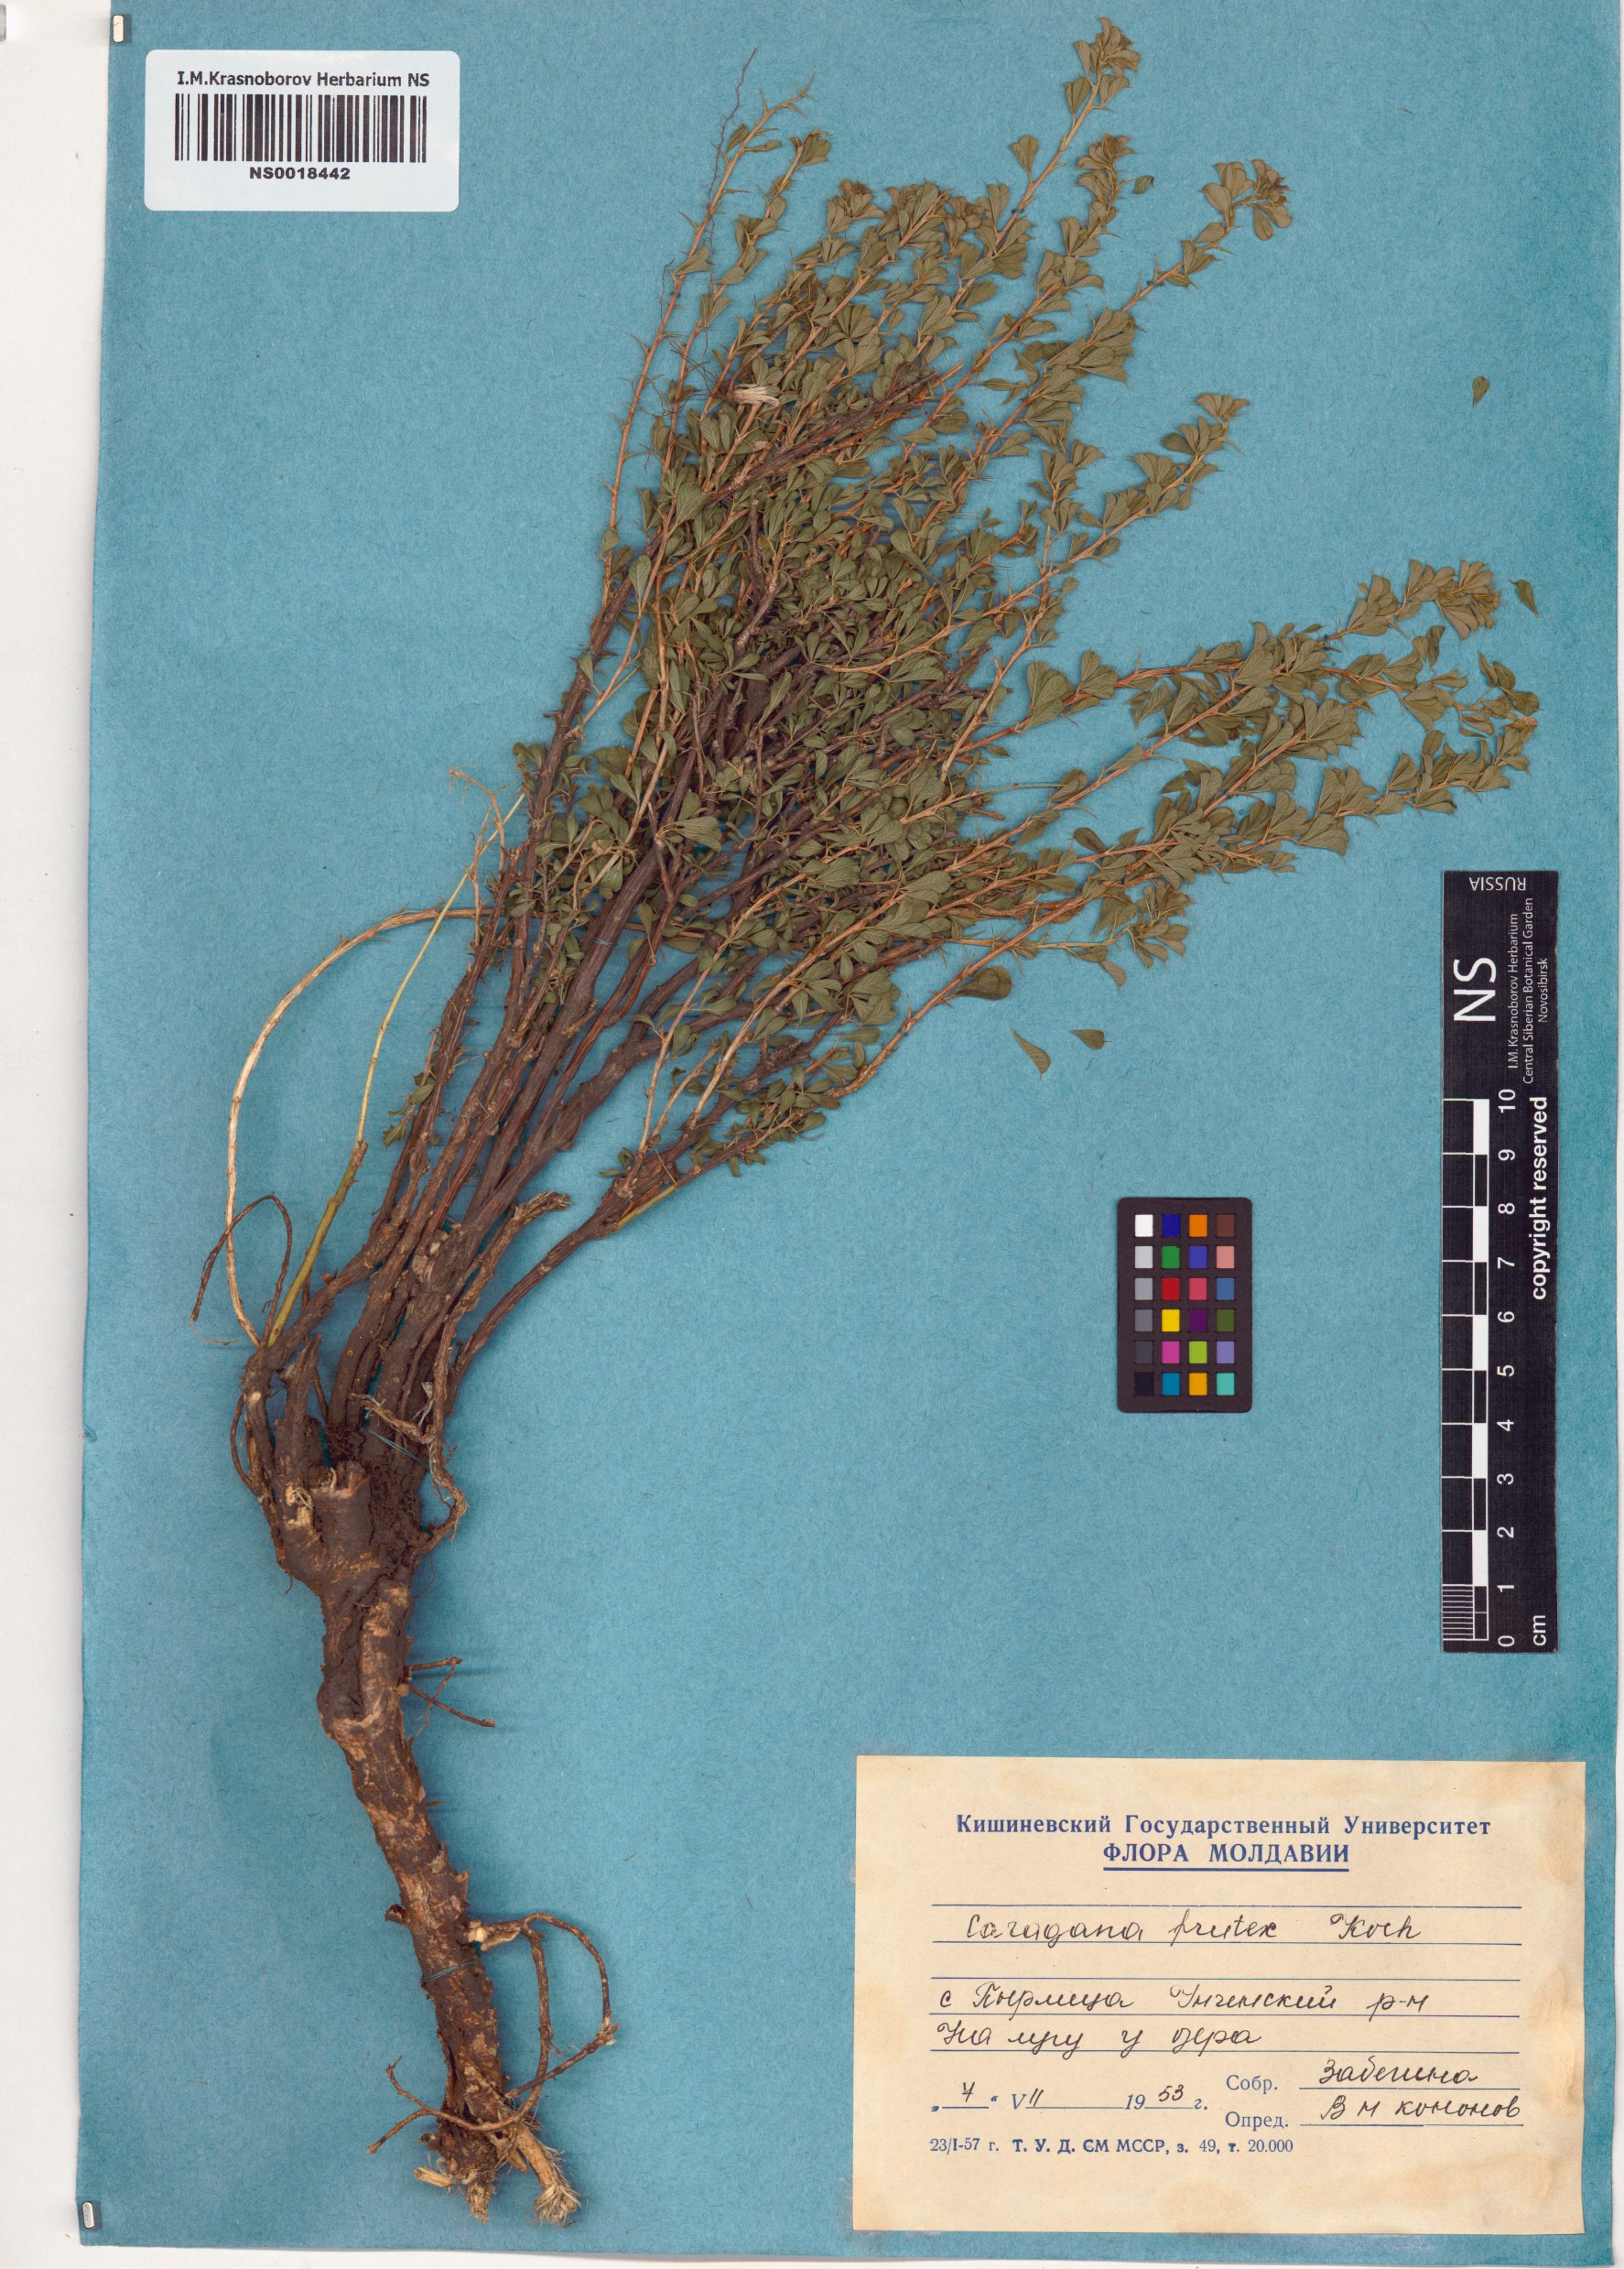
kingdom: Plantae
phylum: Tracheophyta
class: Magnoliopsida
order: Fabales
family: Fabaceae
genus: Caragana
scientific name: Caragana frutex
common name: Russian peashrub
